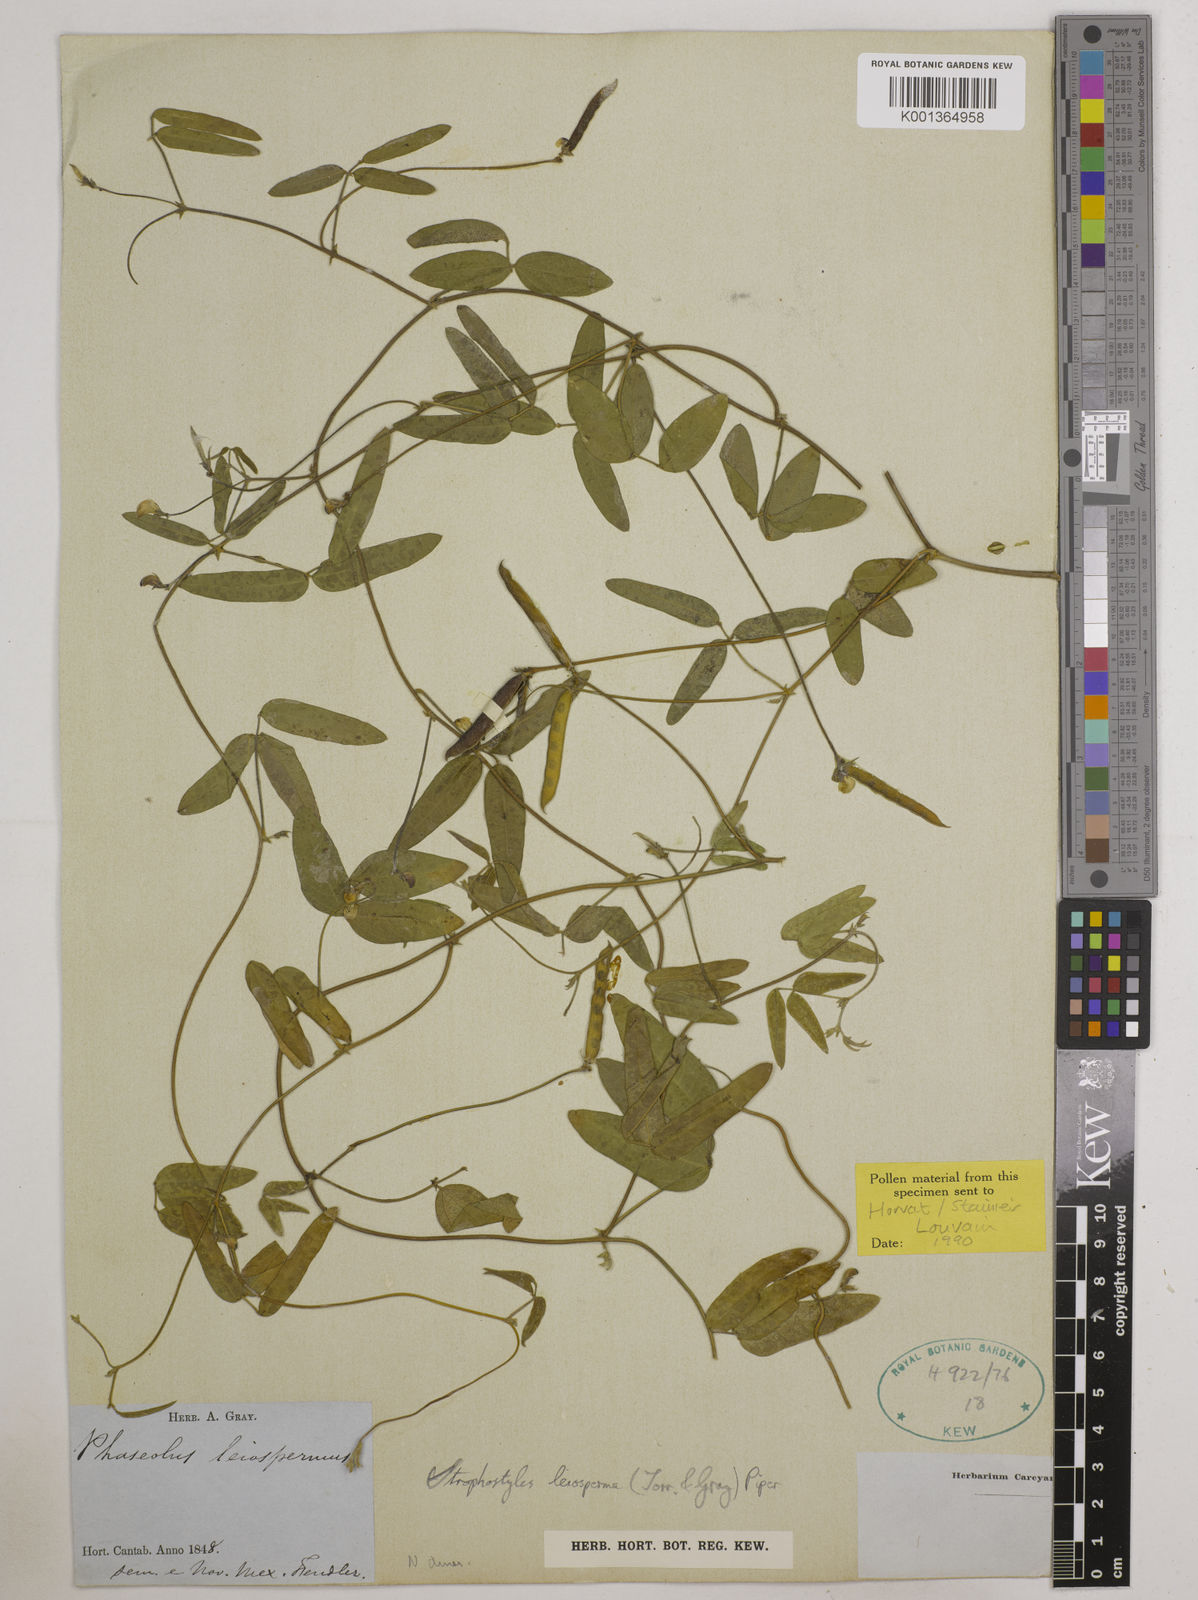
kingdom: Plantae
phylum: Tracheophyta
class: Magnoliopsida
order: Fabales
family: Fabaceae
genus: Strophostyles
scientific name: Strophostyles leiosperma
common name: Smooth-seed wild bean
